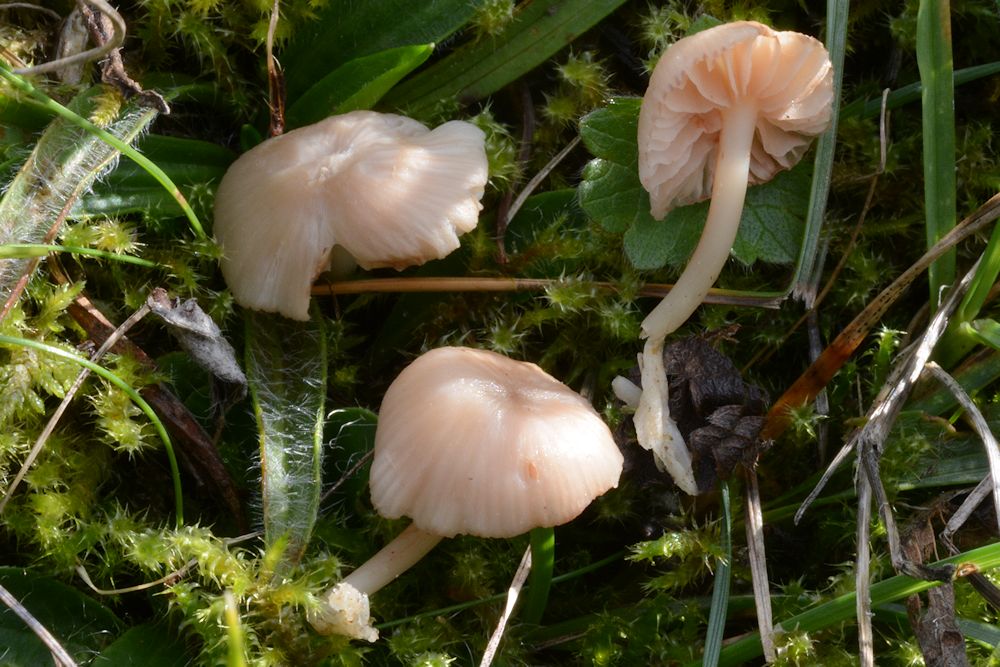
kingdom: Fungi
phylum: Basidiomycota
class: Agaricomycetes
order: Agaricales
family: Entolomataceae
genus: Entoloma
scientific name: Entoloma pseudoturci
